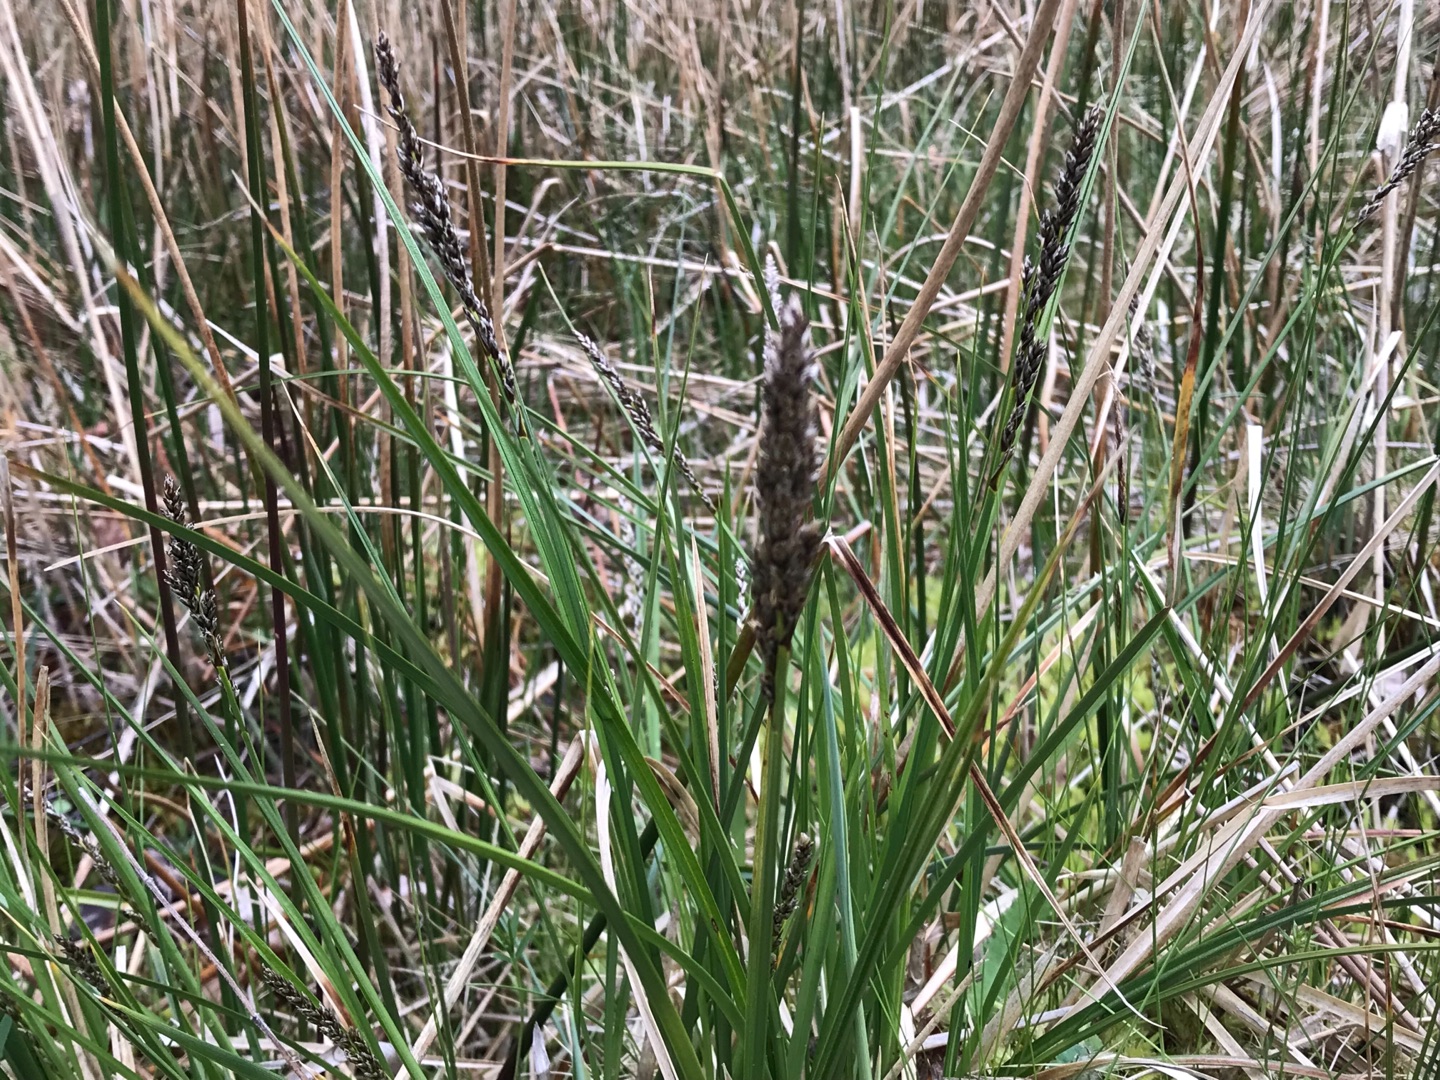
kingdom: Plantae
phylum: Tracheophyta
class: Liliopsida
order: Poales
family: Cyperaceae
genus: Carex
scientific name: Carex
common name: Starslægten
